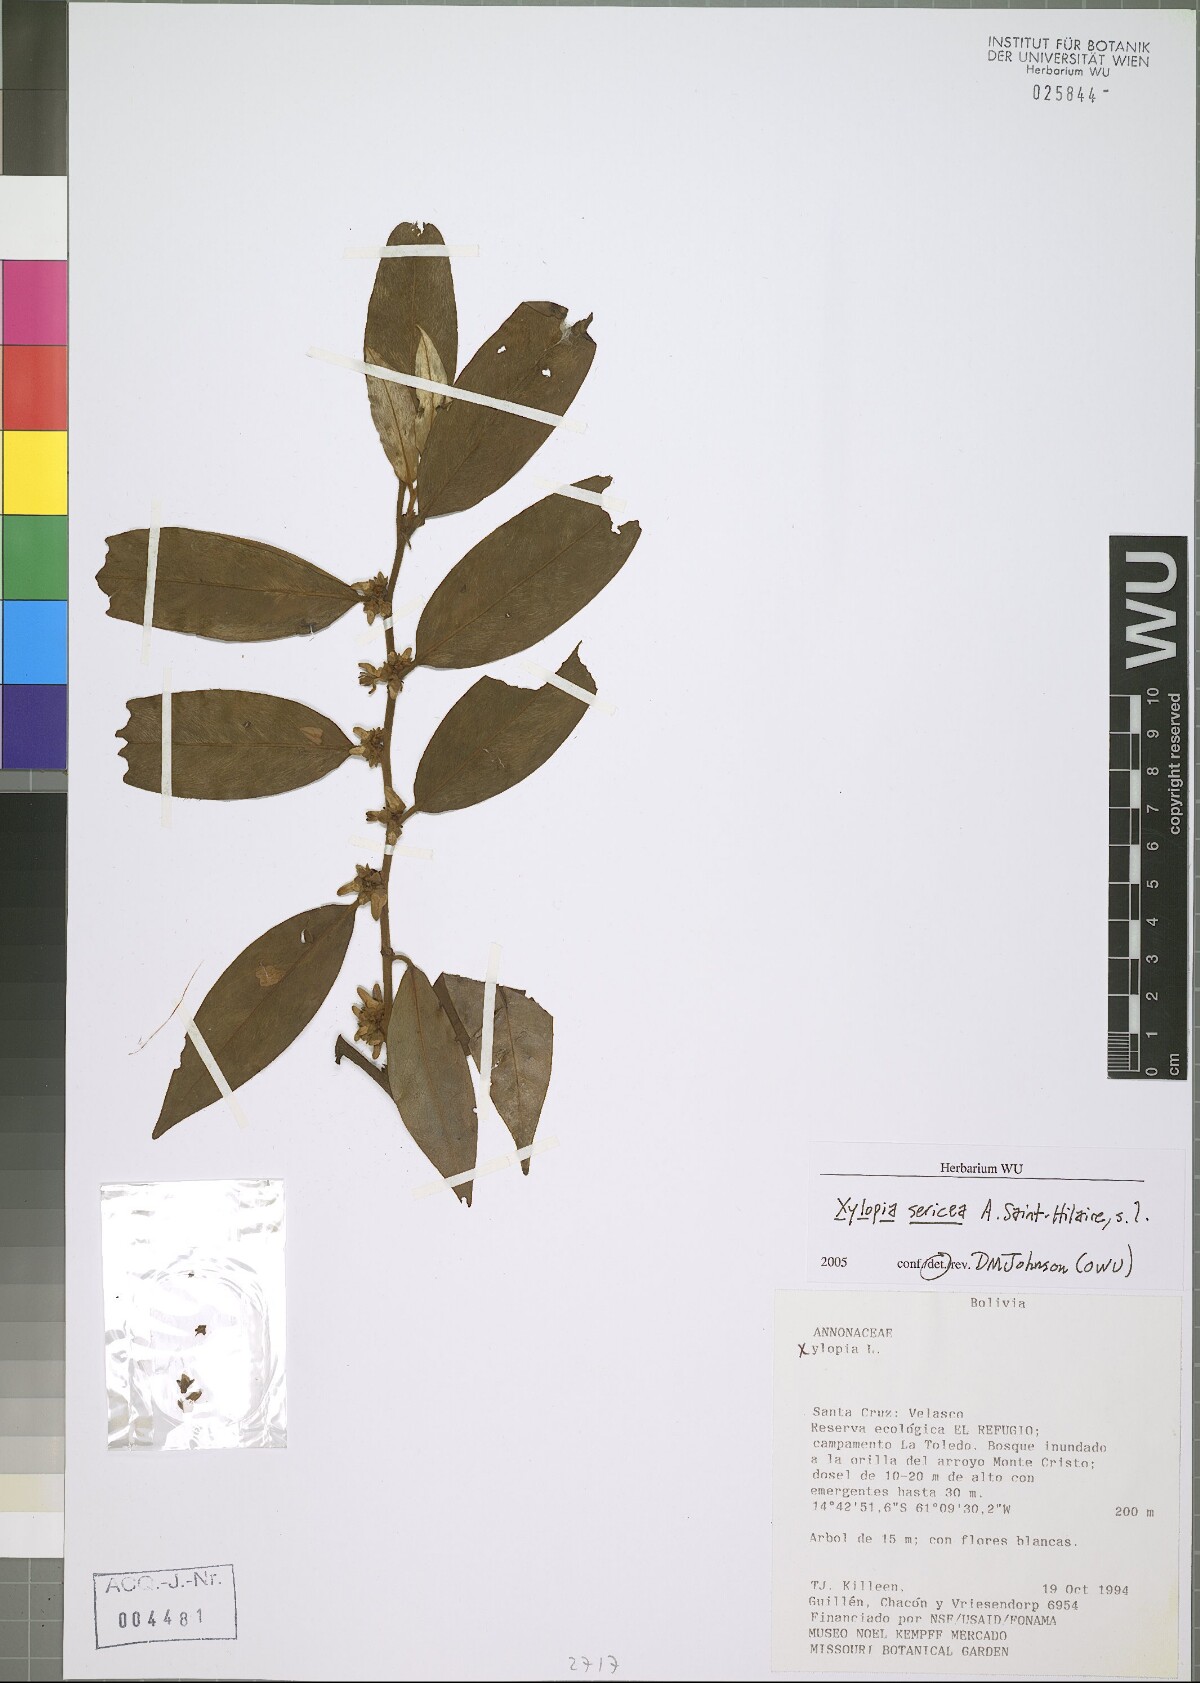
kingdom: Plantae
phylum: Tracheophyta
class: Magnoliopsida
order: Magnoliales
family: Annonaceae
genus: Xylopia
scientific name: Xylopia sericea
